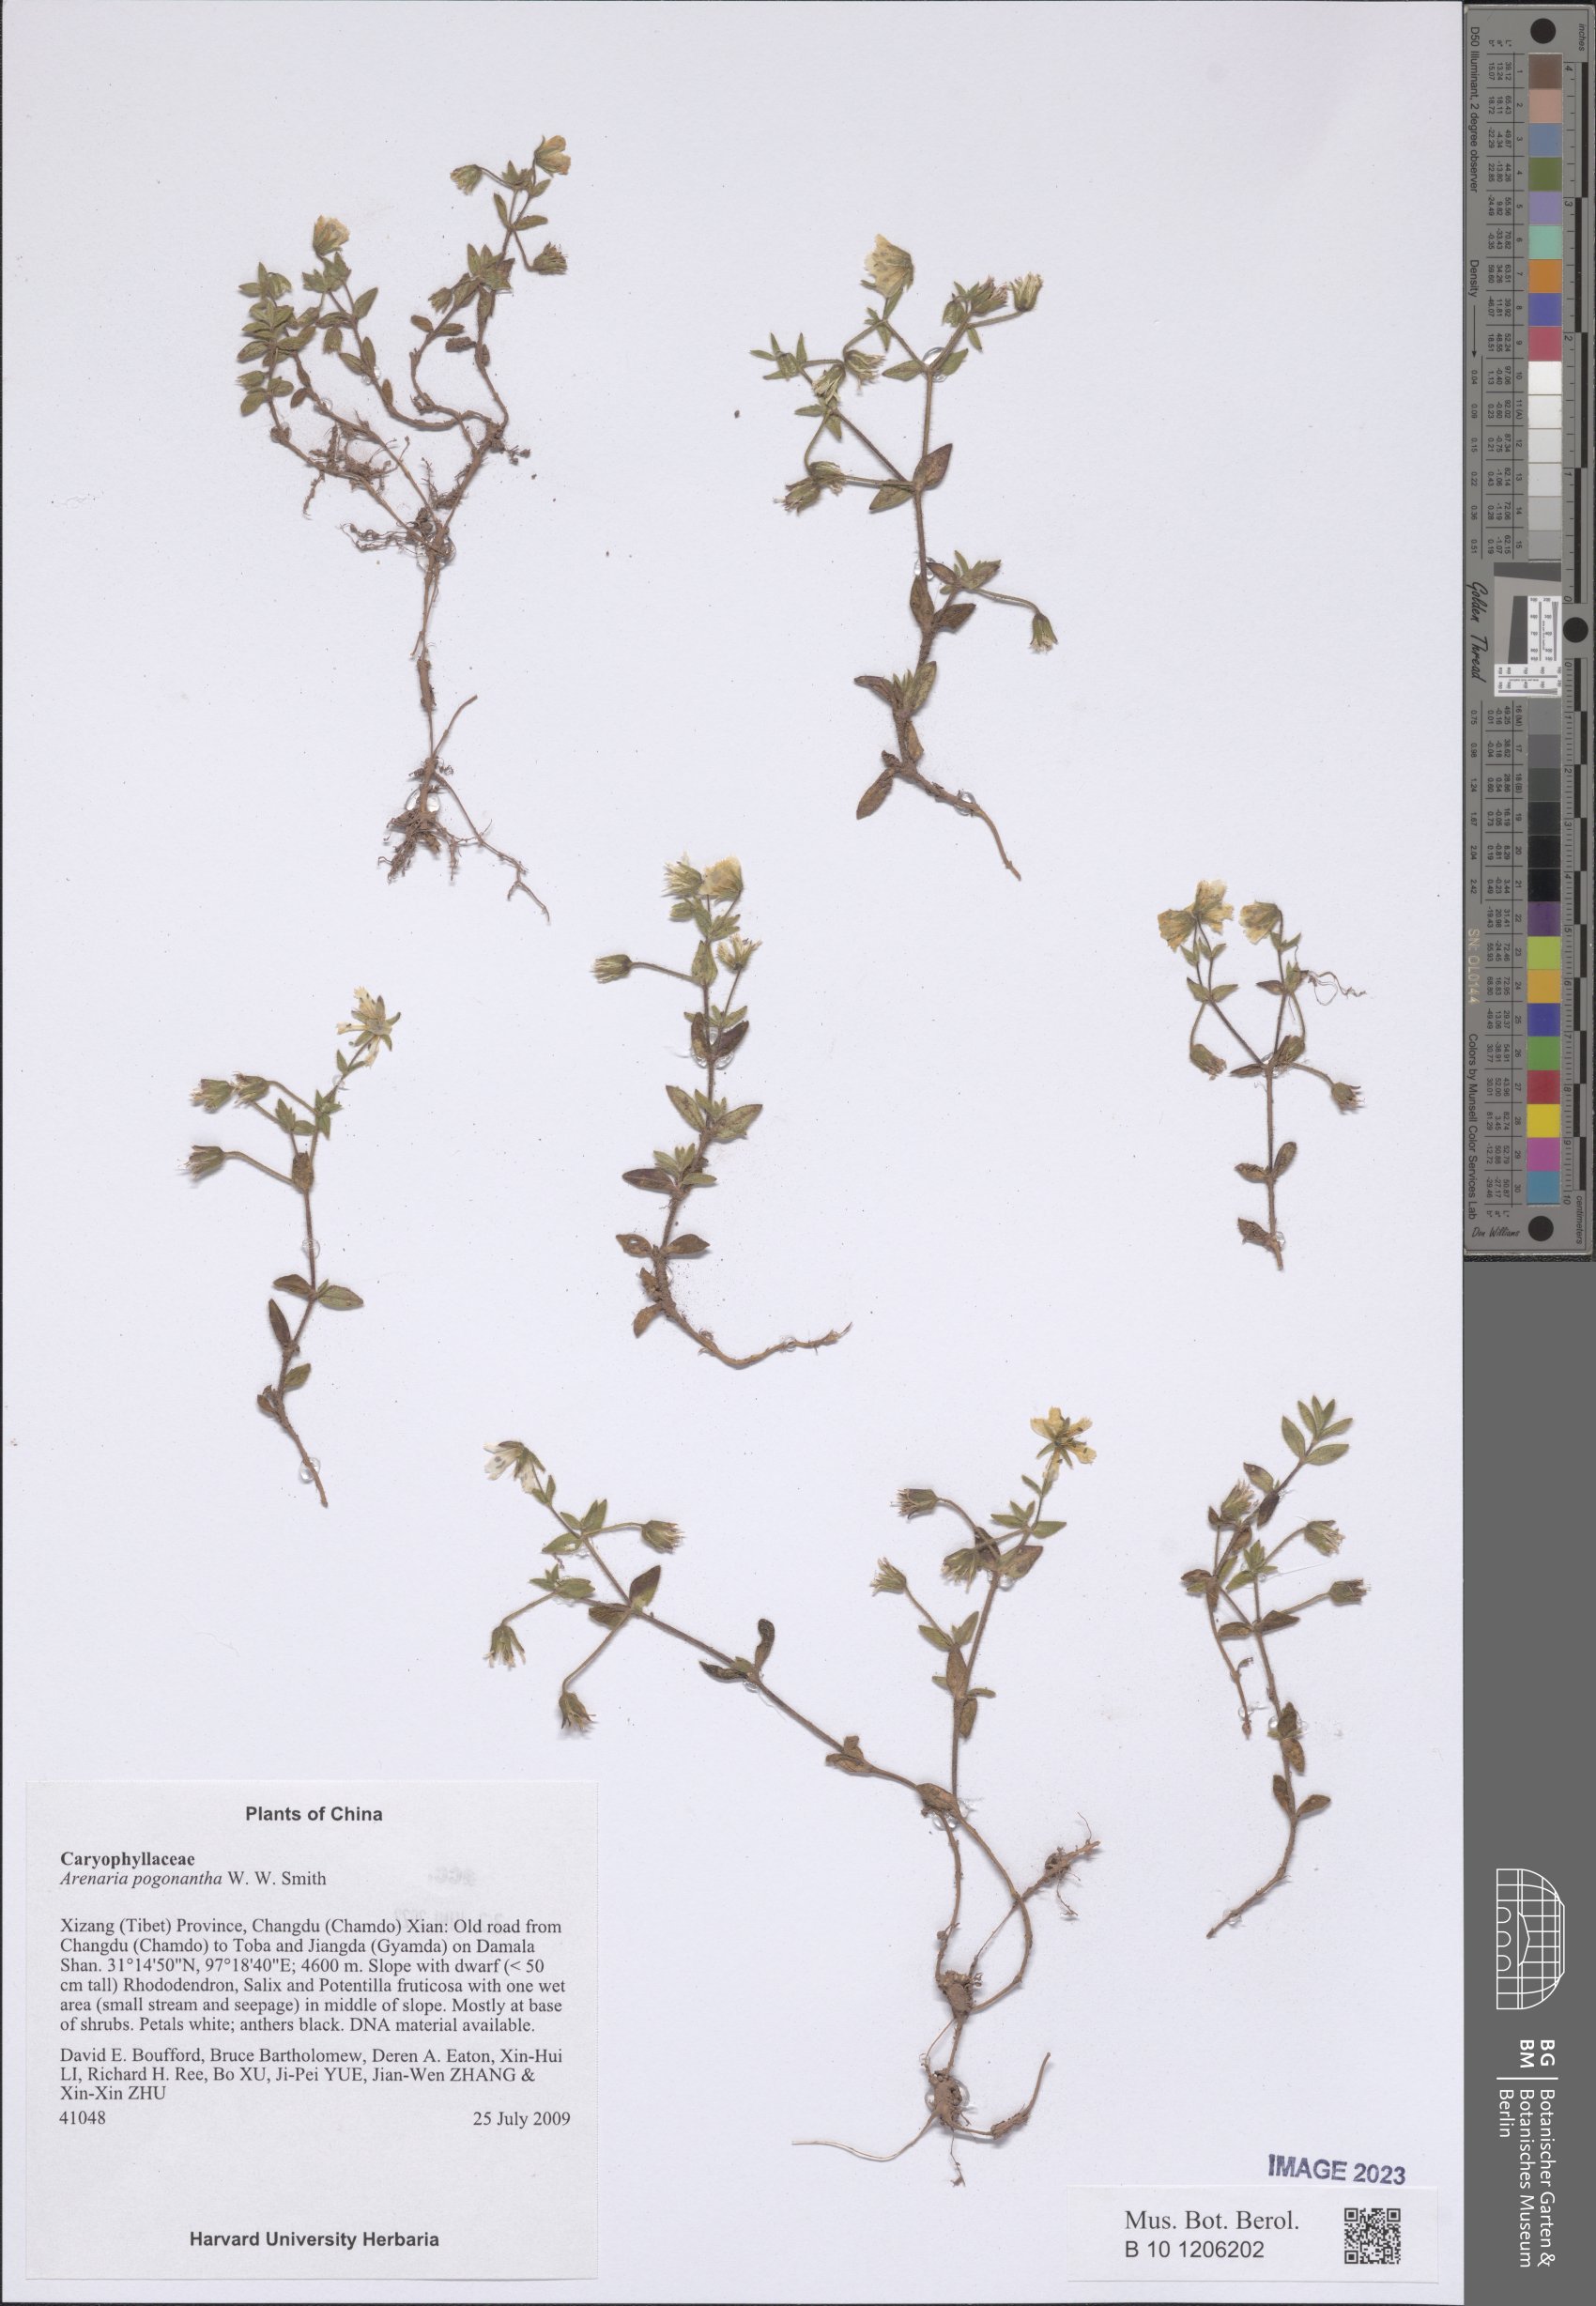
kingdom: Plantae
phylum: Tracheophyta
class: Magnoliopsida
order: Caryophyllales
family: Caryophyllaceae
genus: Odontostemma
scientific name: Odontostemma pogonanthum
